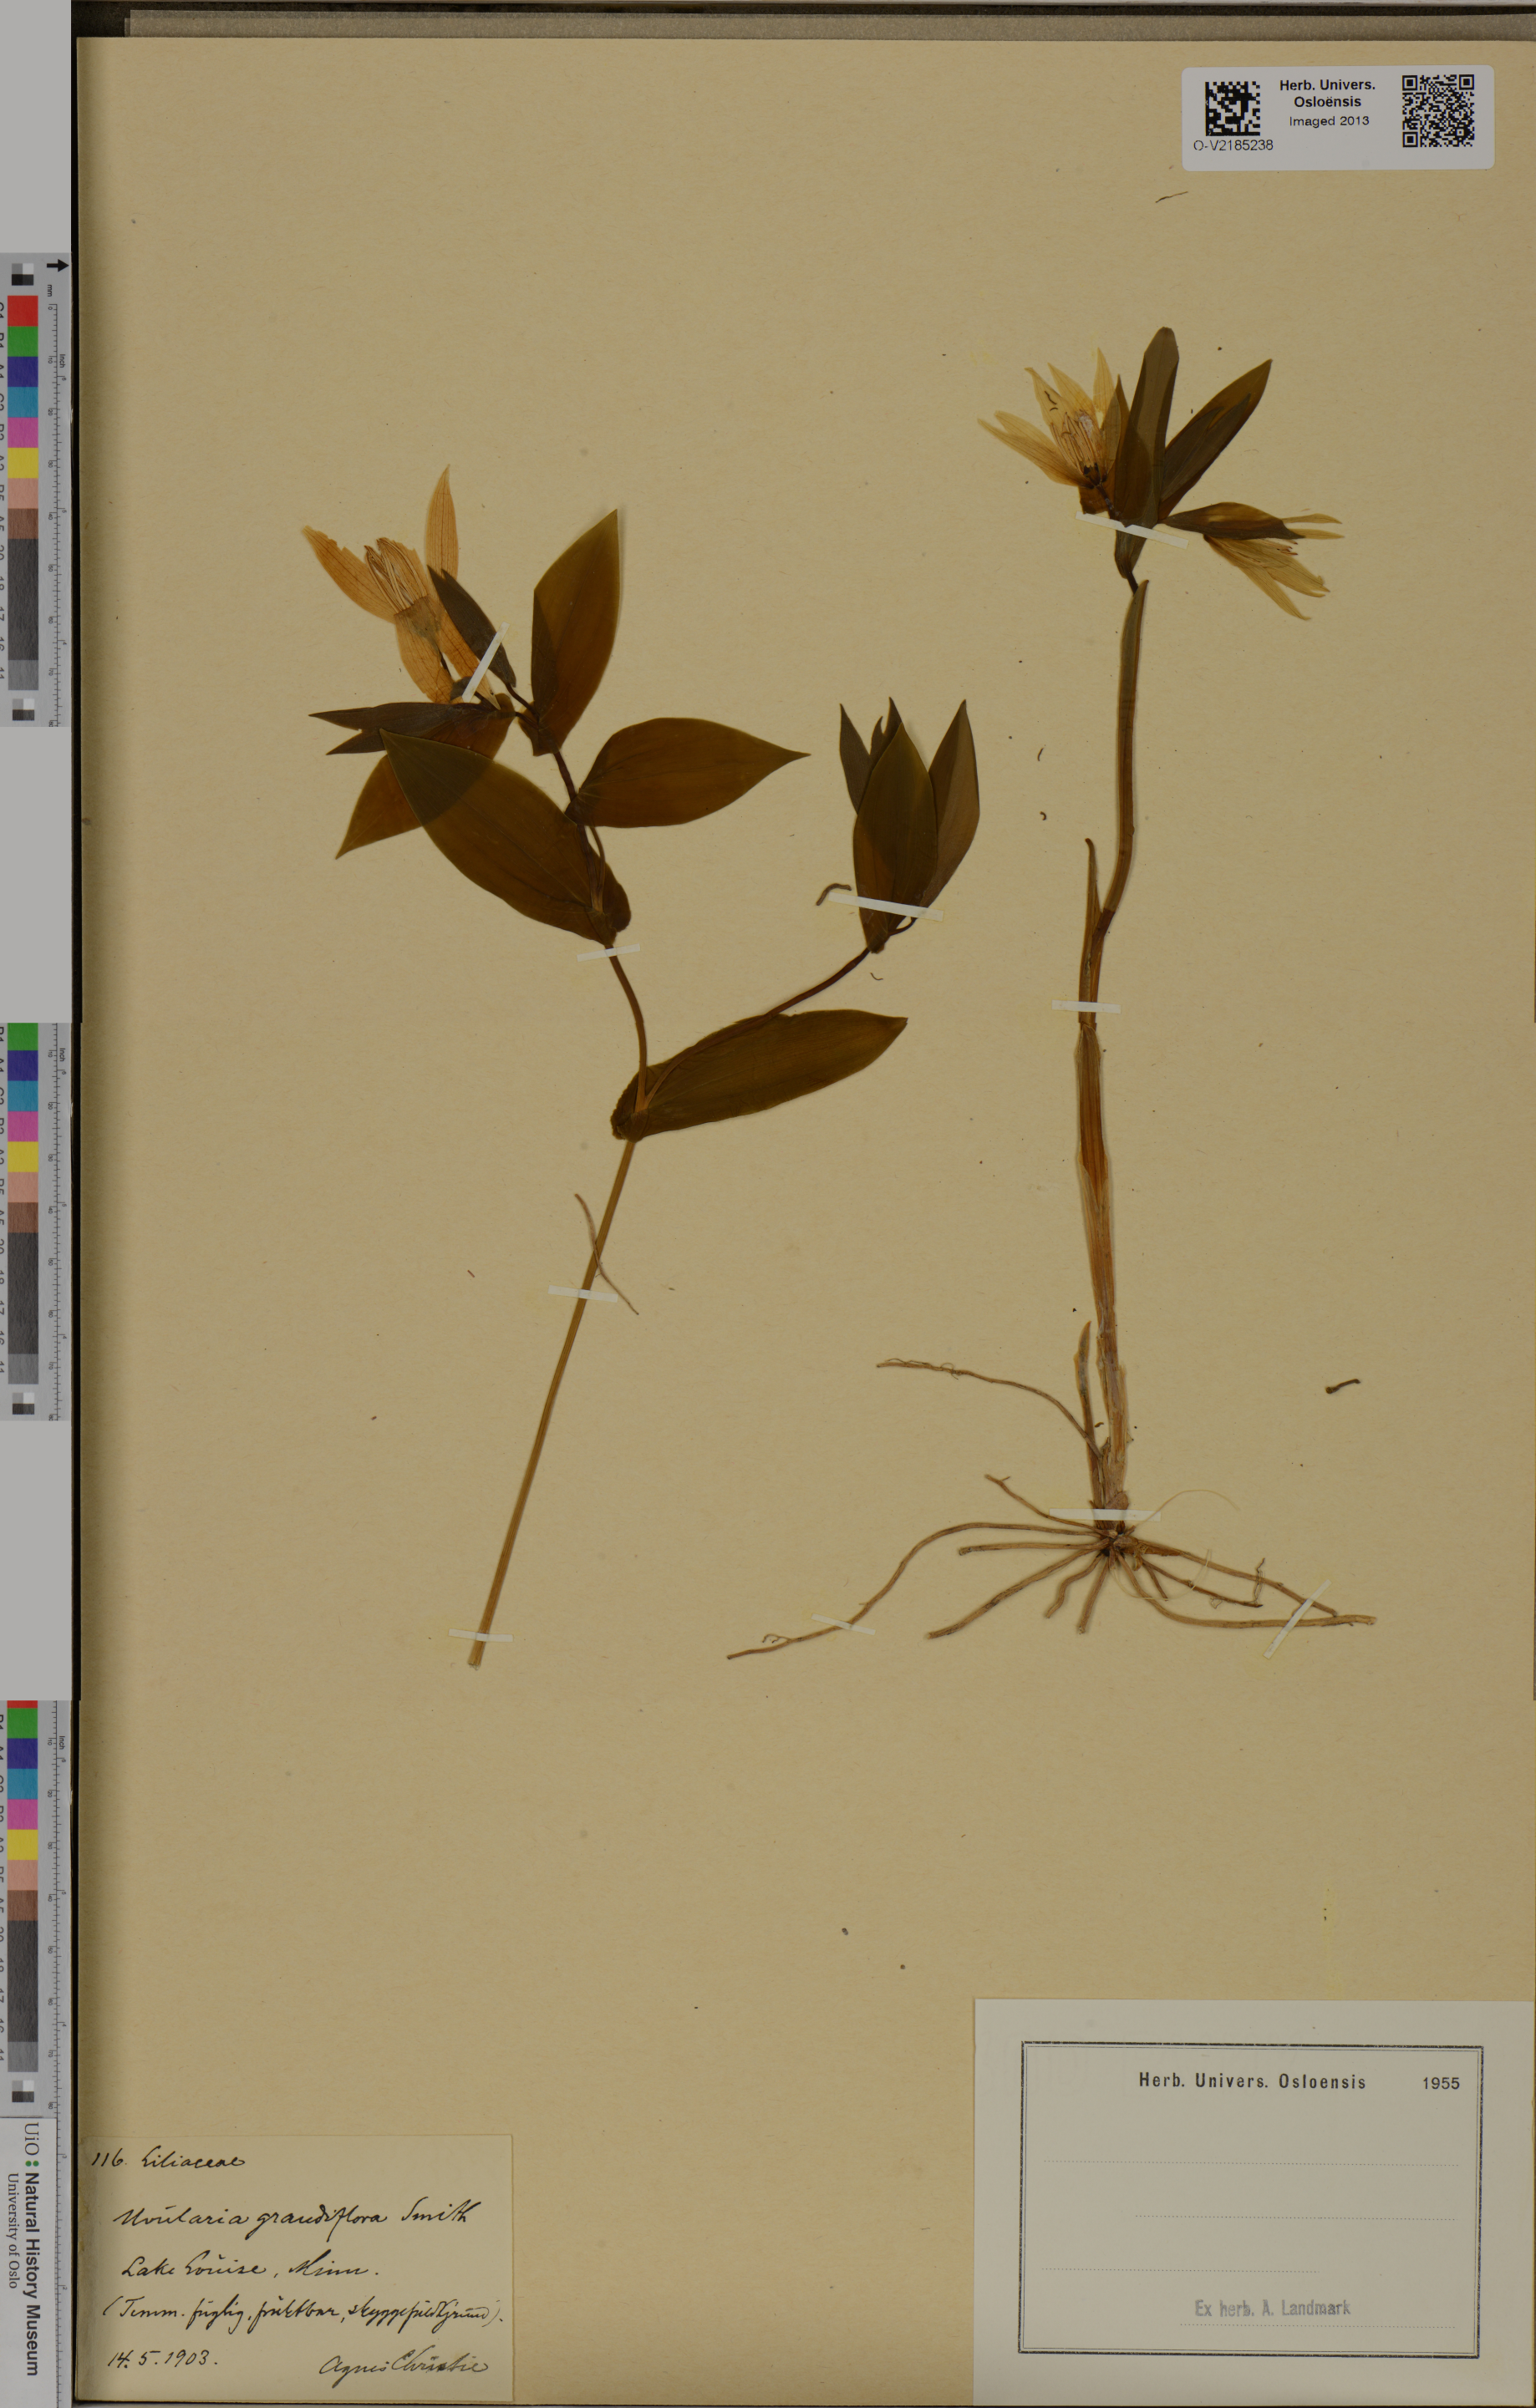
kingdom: Plantae
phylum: Tracheophyta
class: Liliopsida
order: Liliales
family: Colchicaceae
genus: Uvularia
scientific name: Uvularia grandiflora
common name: Bellwort
